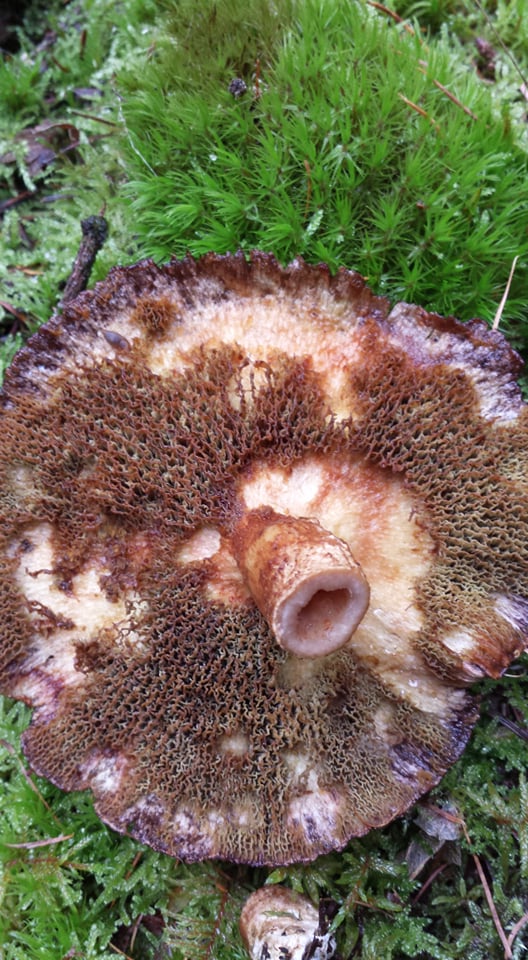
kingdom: Fungi
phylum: Basidiomycota
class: Agaricomycetes
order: Boletales
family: Suillaceae
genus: Suillus
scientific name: Suillus cavipes
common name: hulstokket slimrørhat
